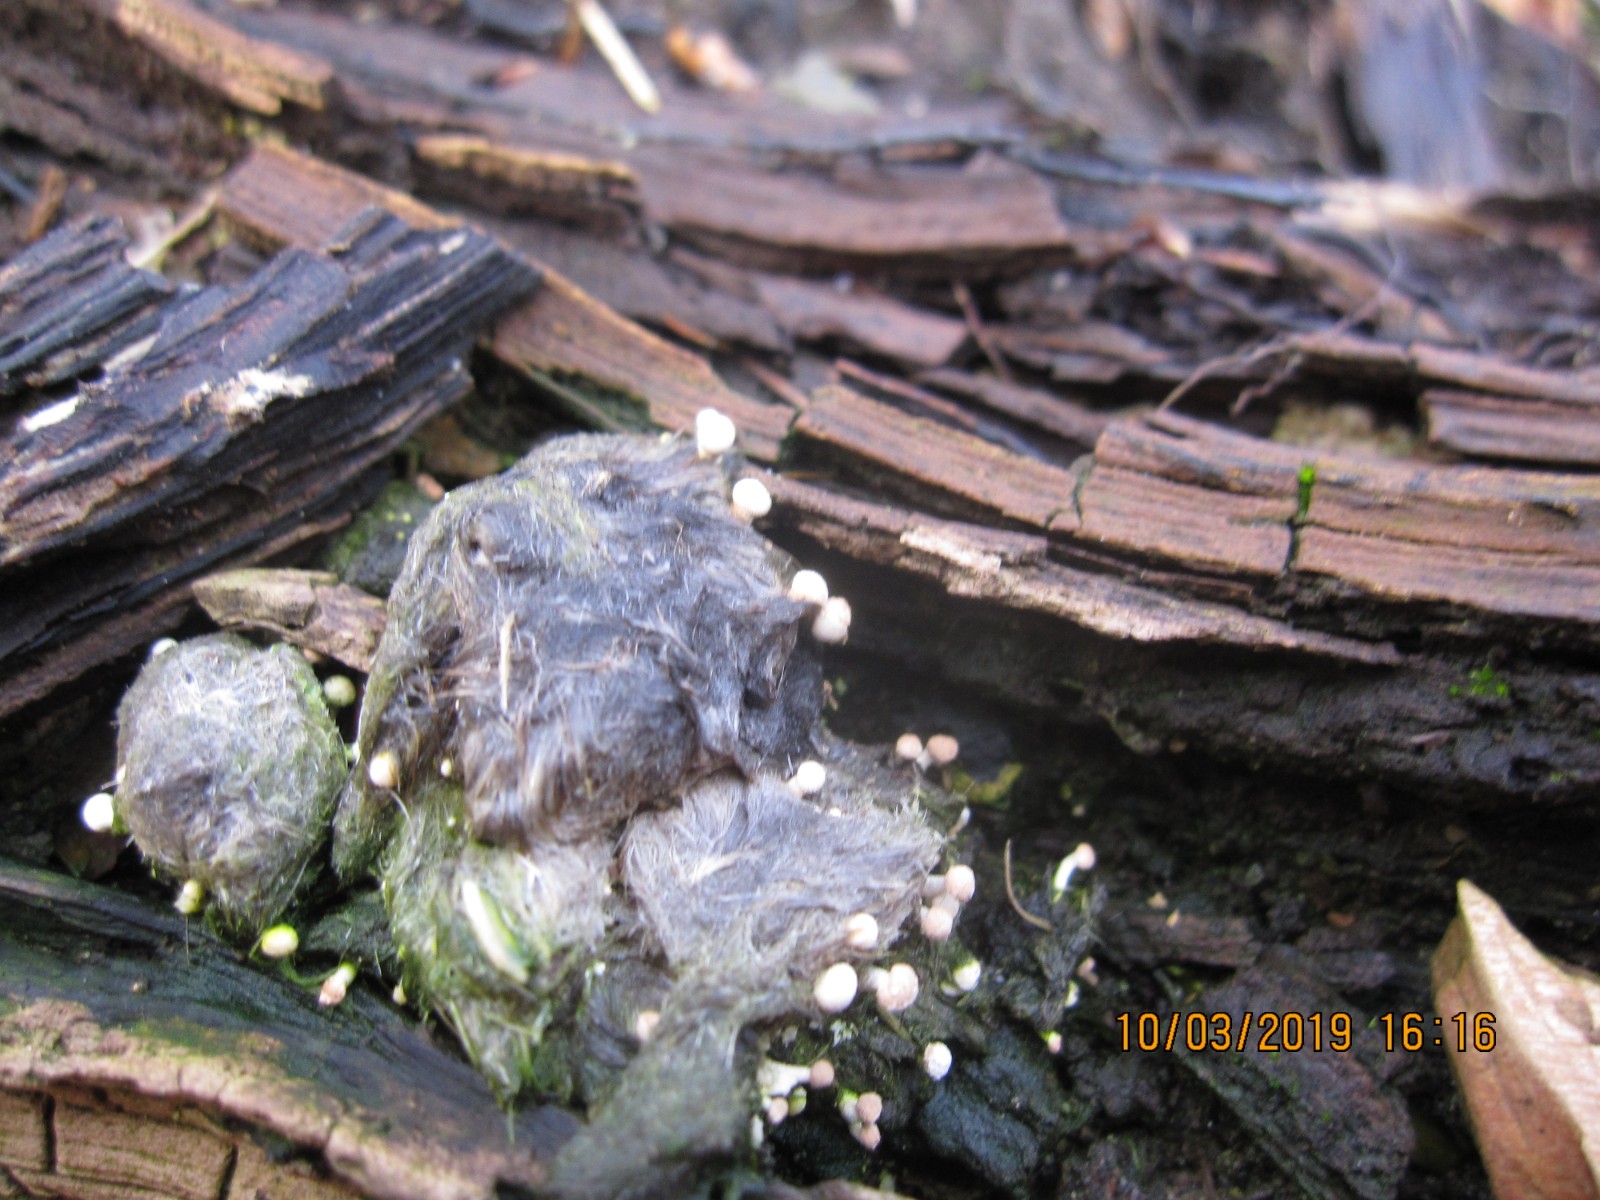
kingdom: Fungi
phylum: Ascomycota
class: Eurotiomycetes
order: Onygenales
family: Onygenaceae
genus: Onygena
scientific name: Onygena corvina
